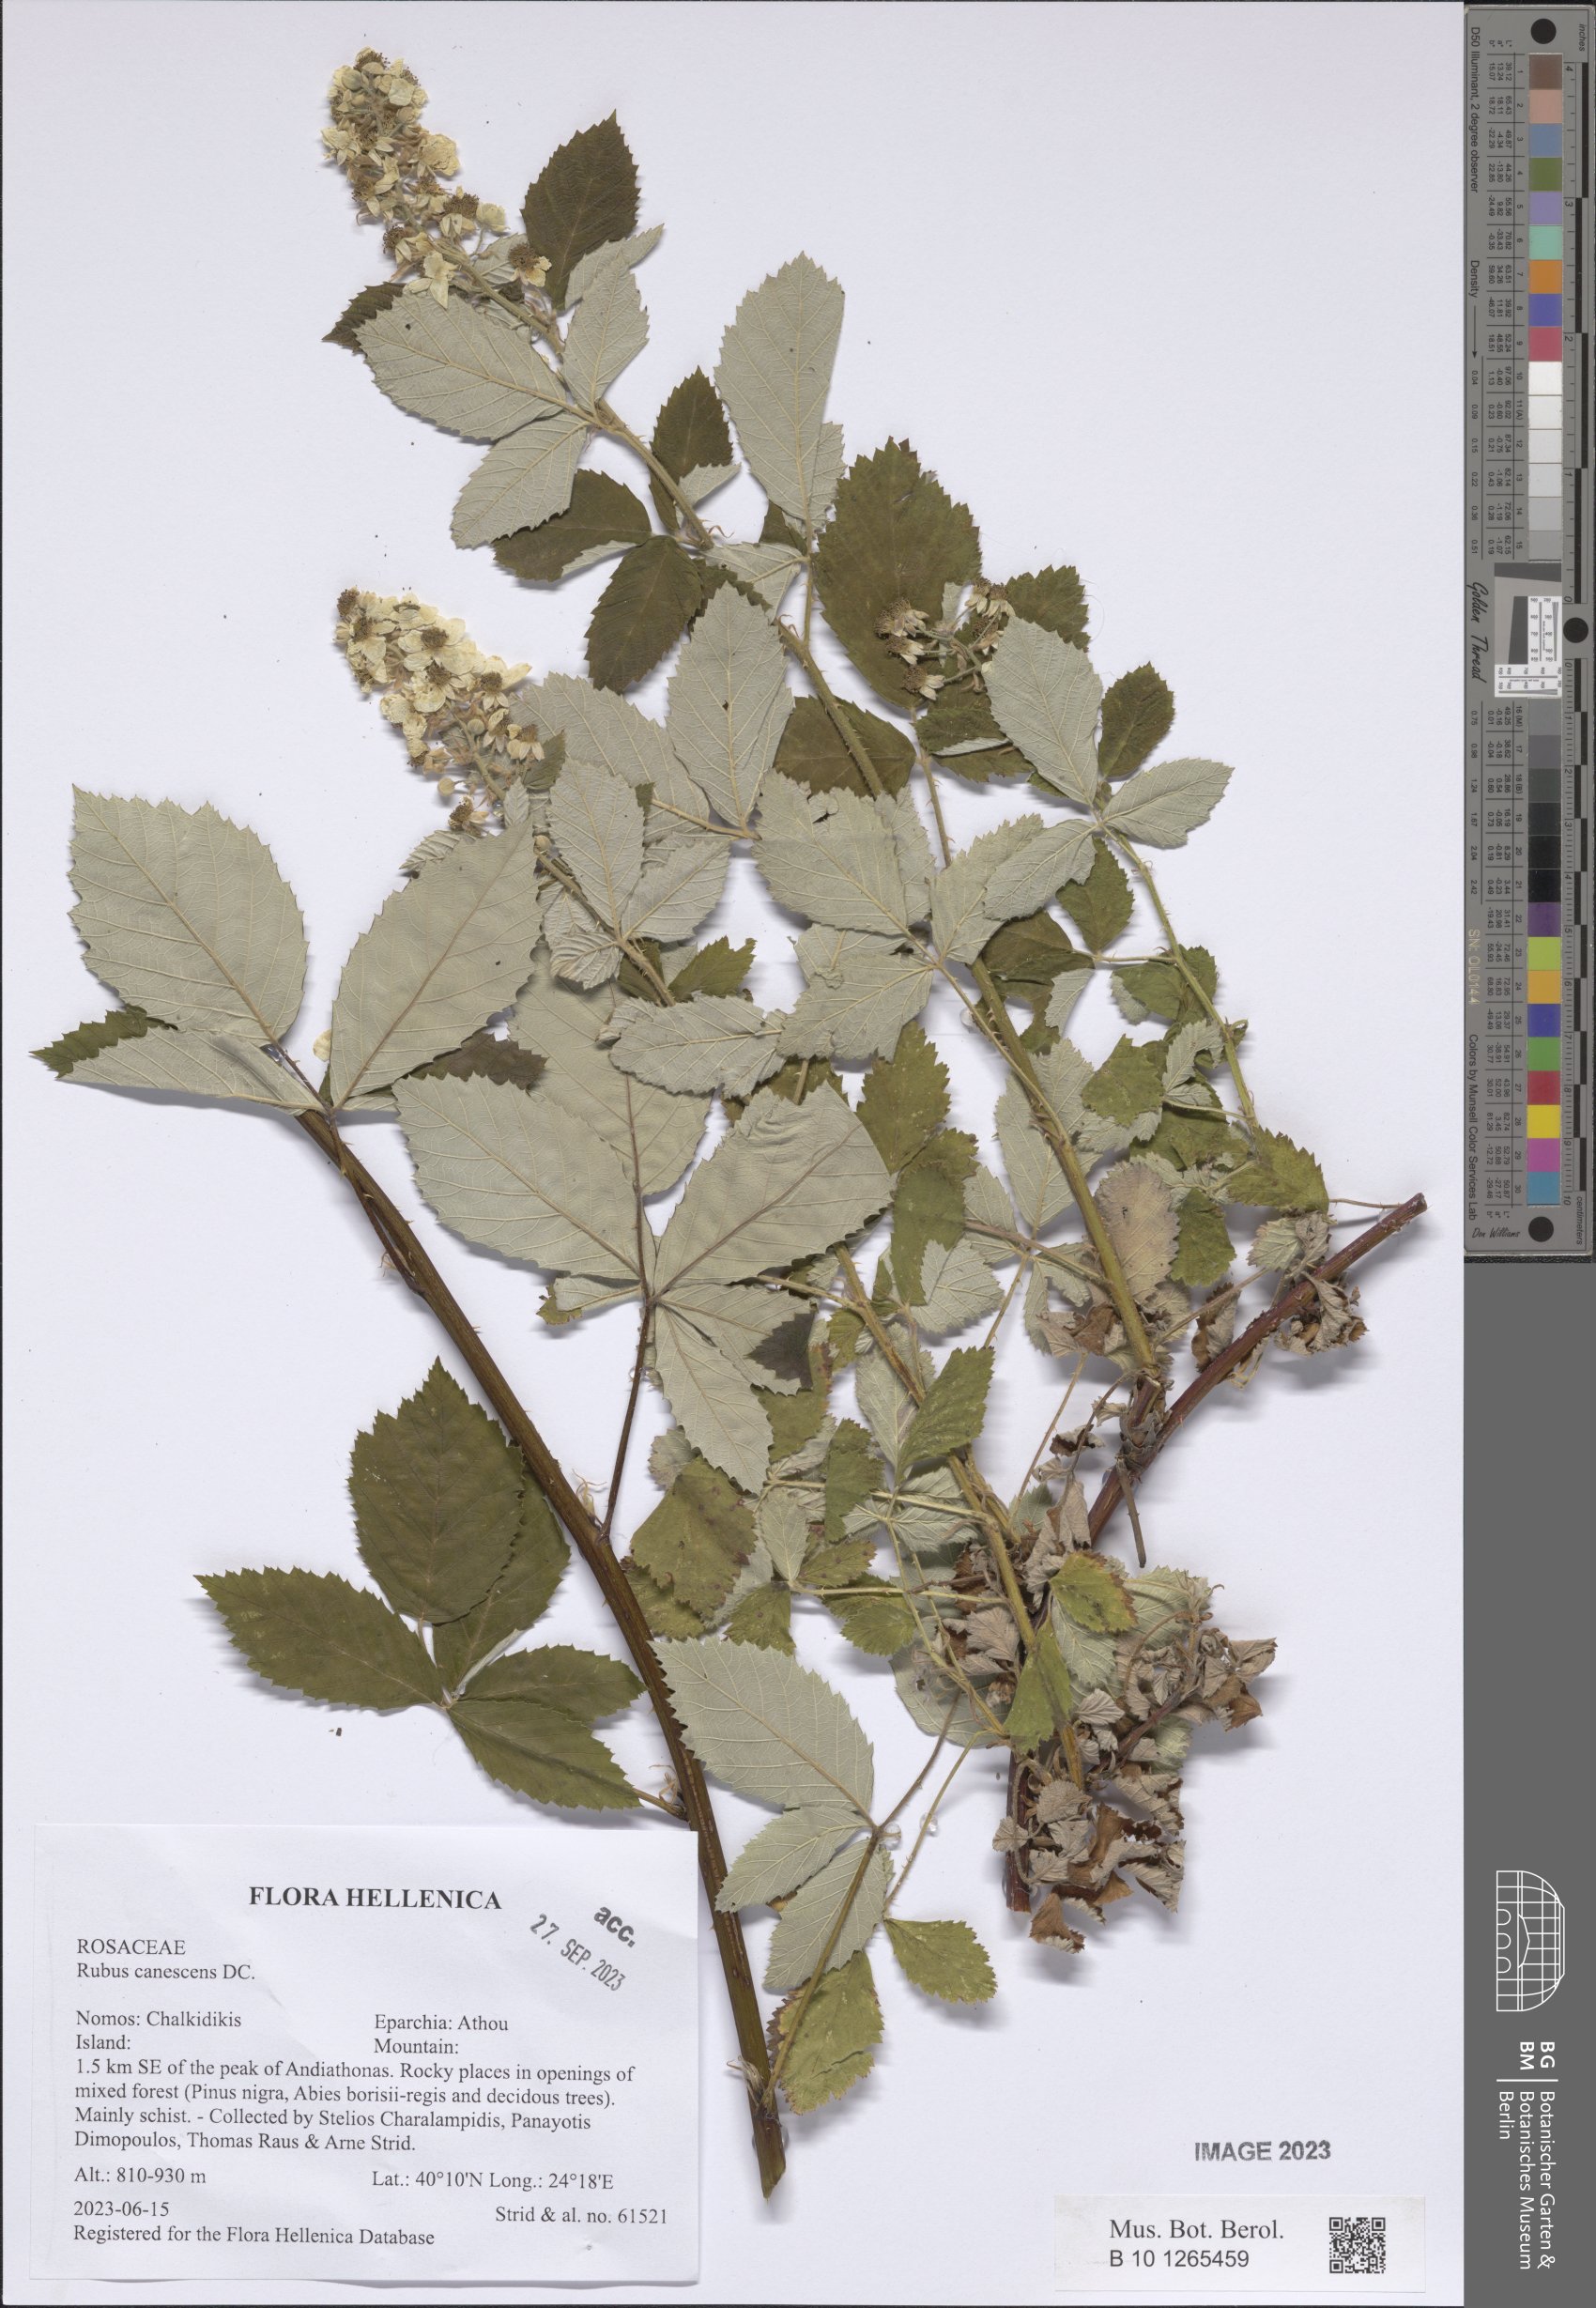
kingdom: Plantae
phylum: Tracheophyta
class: Magnoliopsida
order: Rosales
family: Rosaceae
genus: Rubus
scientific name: Rubus canescens
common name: Wooly blackberry
